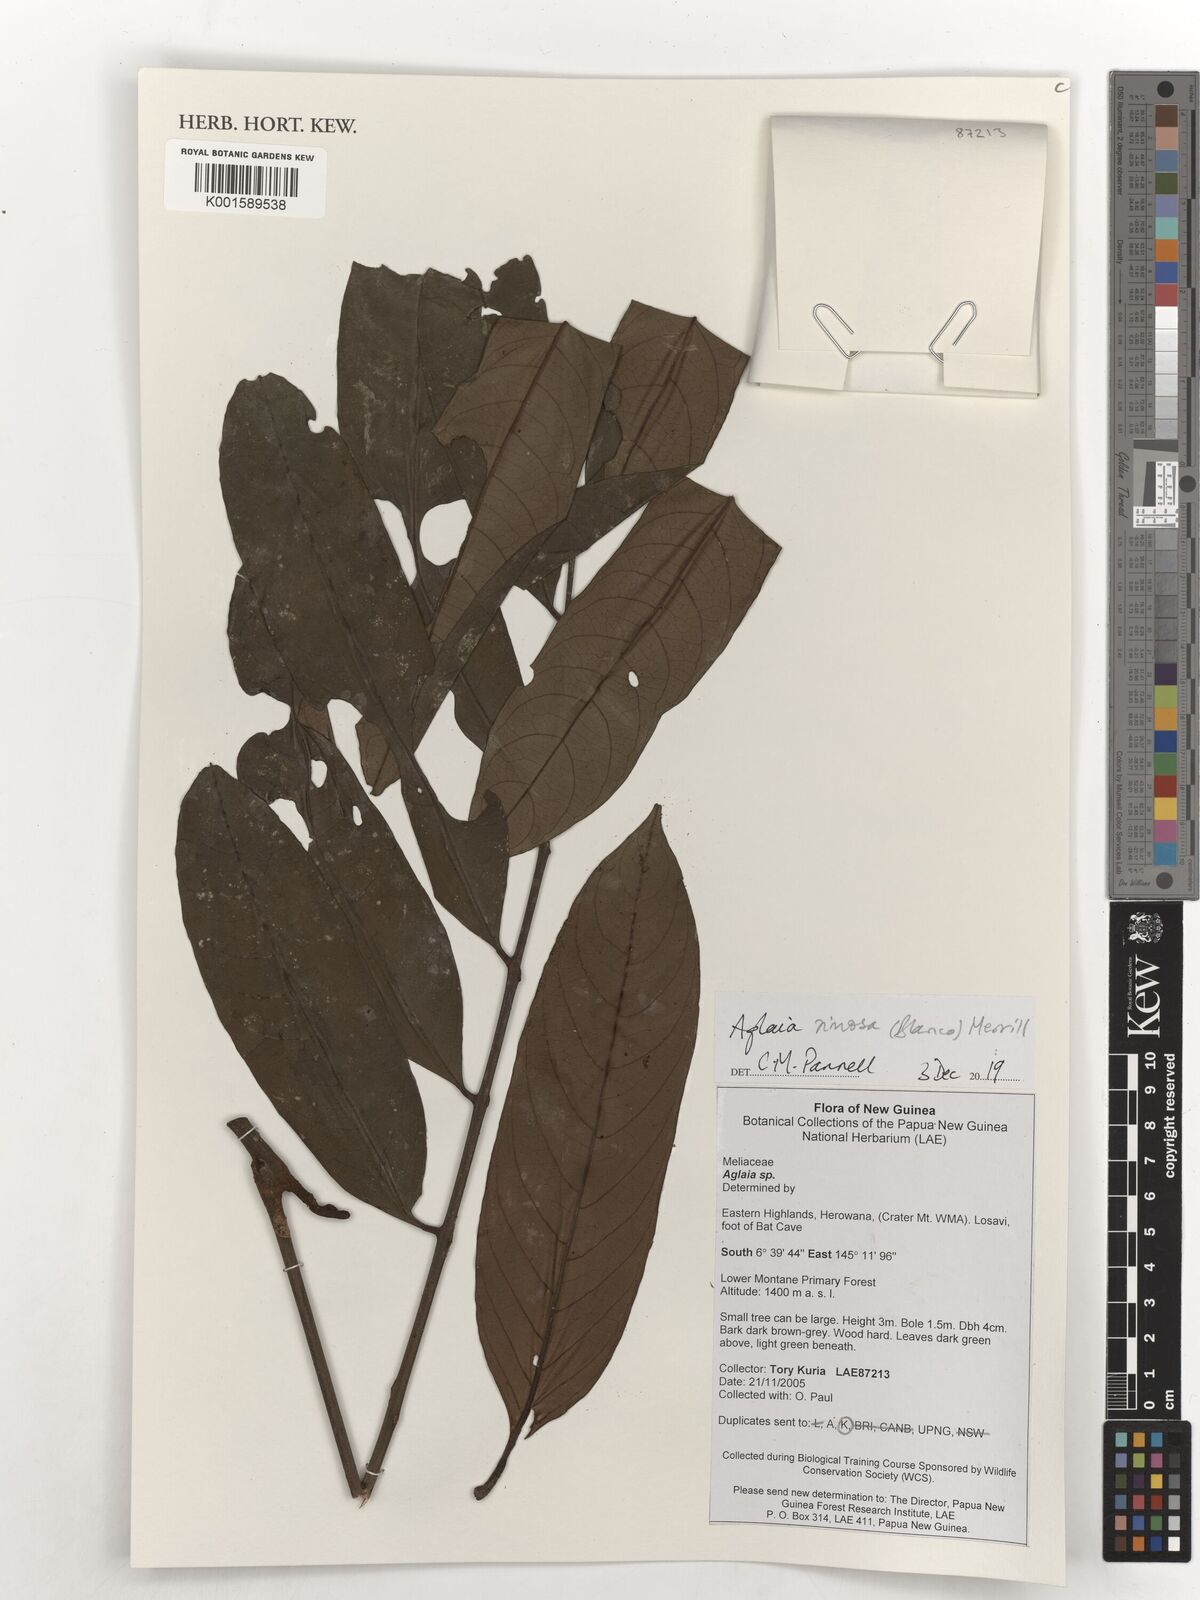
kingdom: Plantae
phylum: Tracheophyta
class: Magnoliopsida
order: Sapindales
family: Meliaceae
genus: Aglaia
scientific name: Aglaia rimosa
